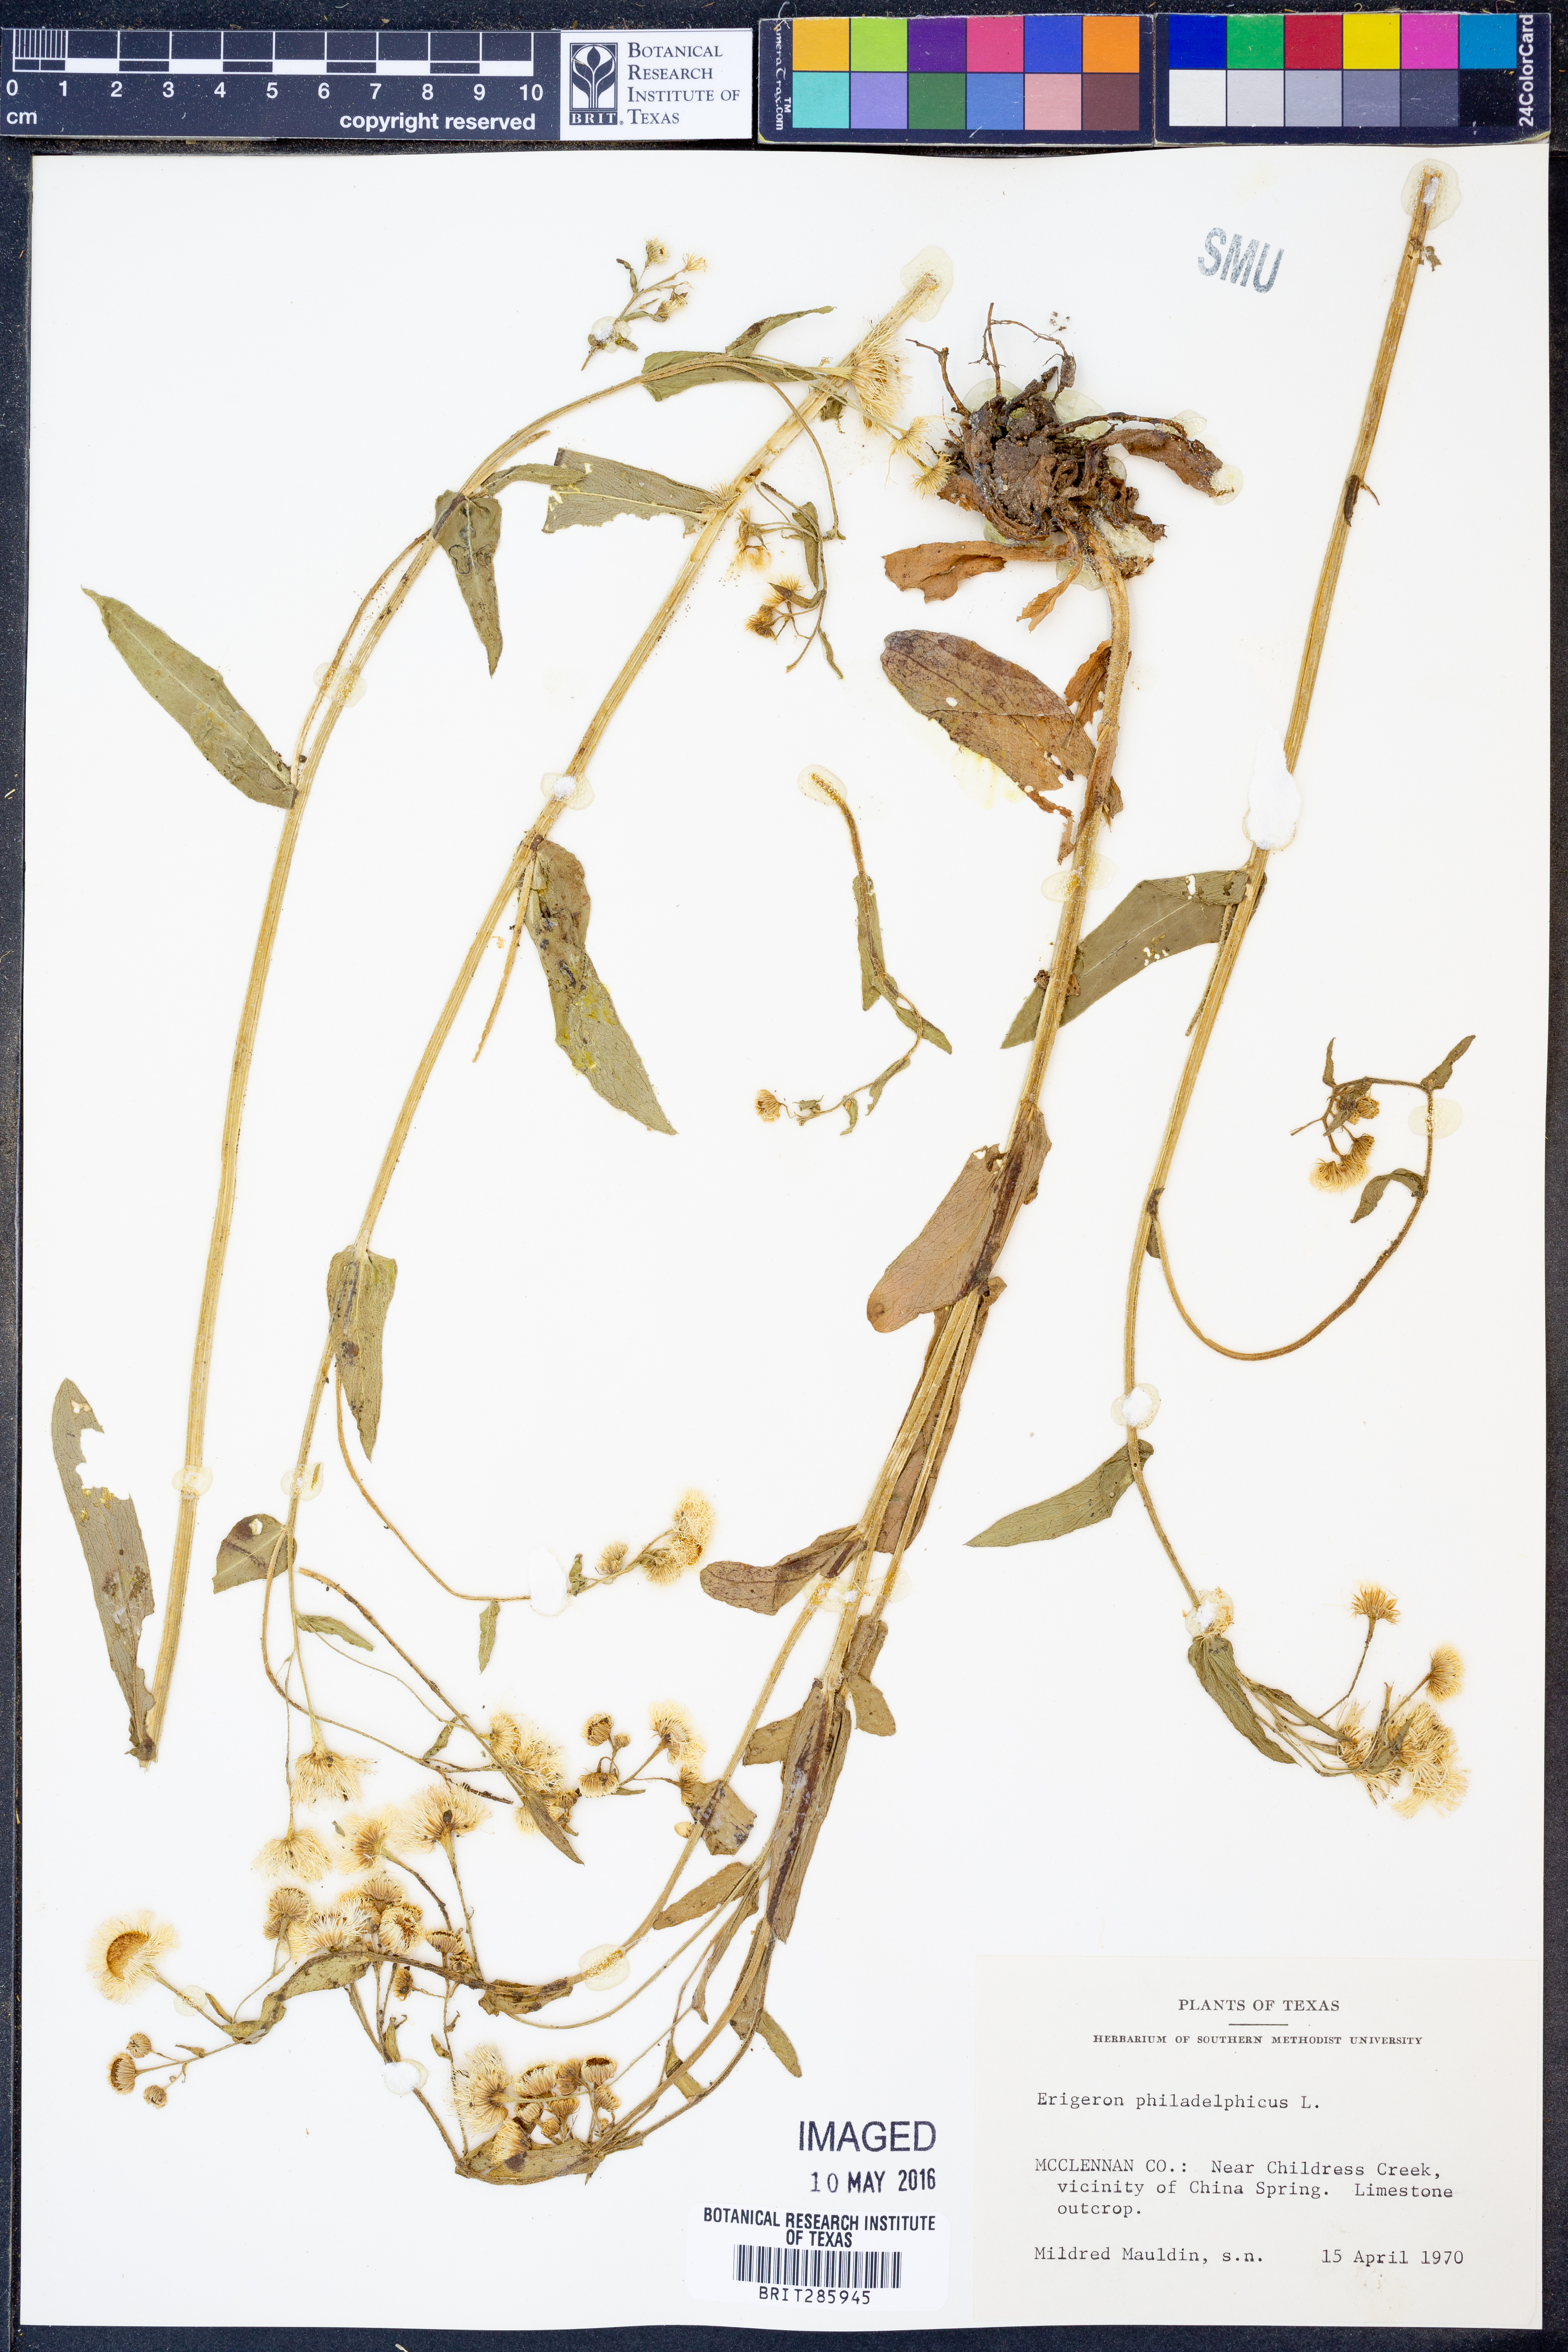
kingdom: Plantae
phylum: Tracheophyta
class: Magnoliopsida
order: Asterales
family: Asteraceae
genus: Erigeron
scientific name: Erigeron philadelphicus
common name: Robin's-plantain
